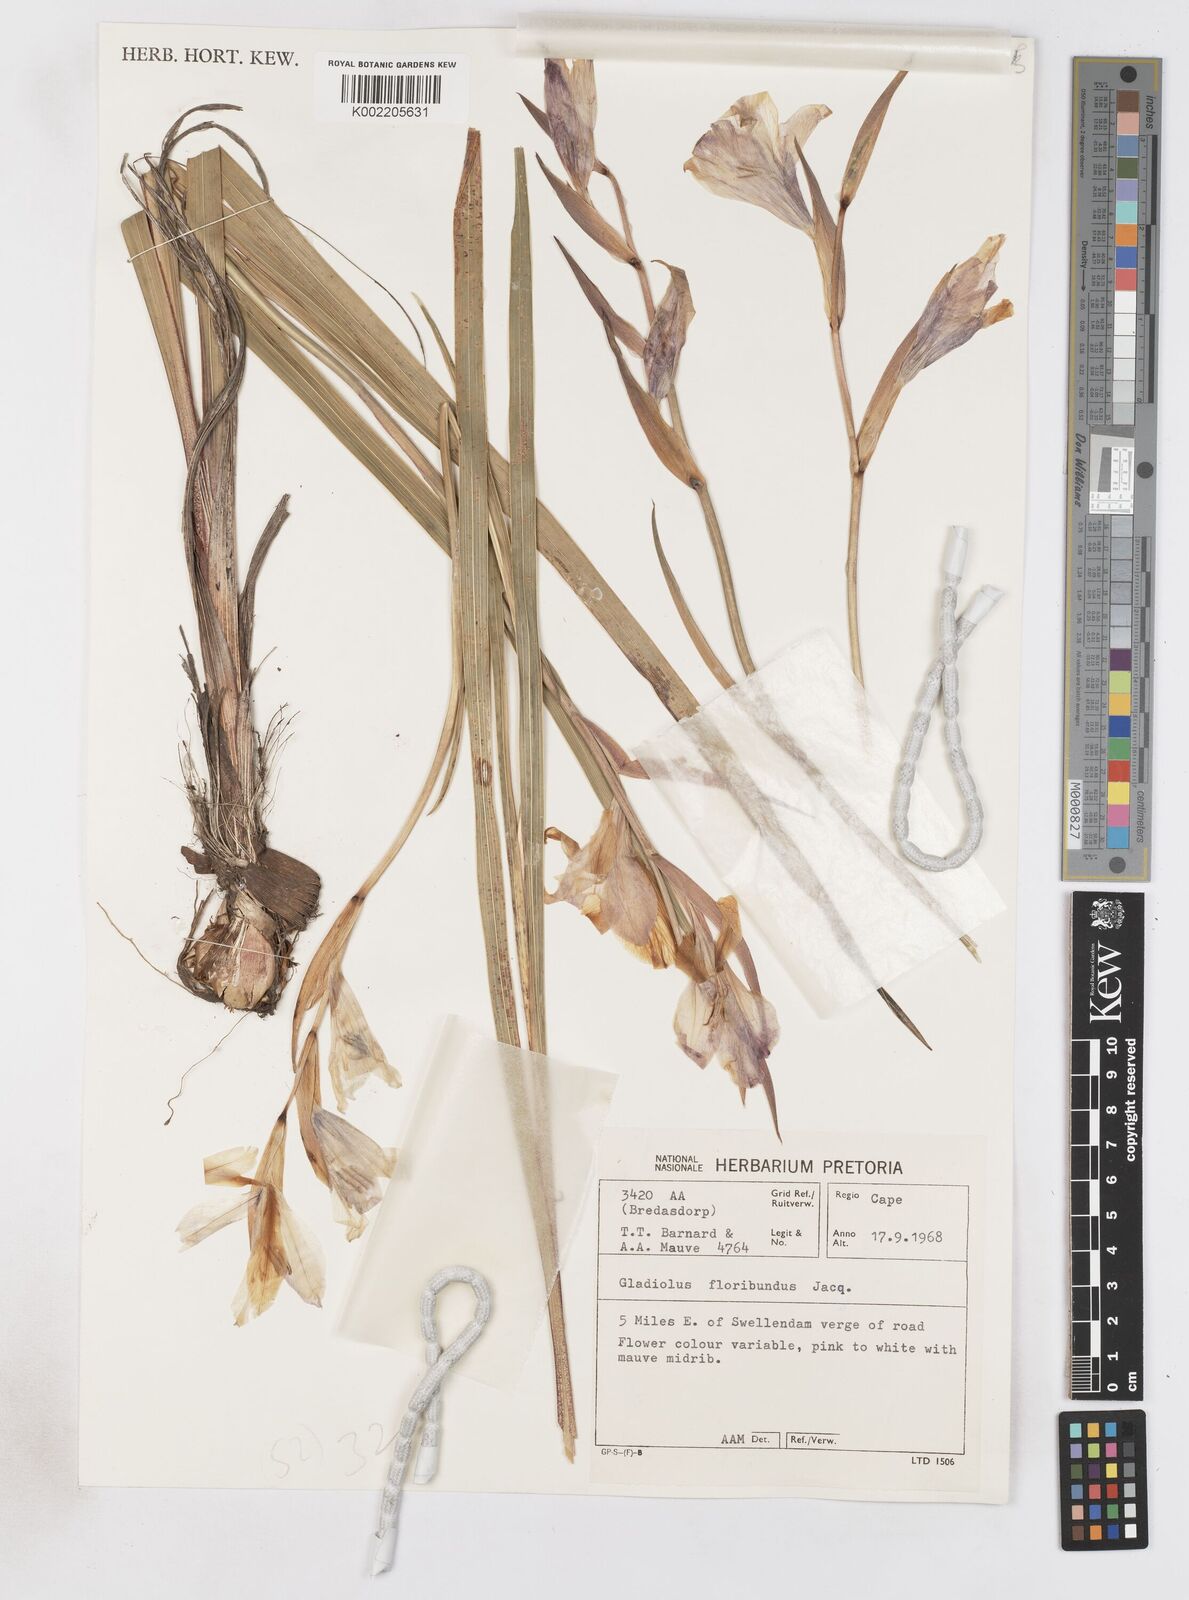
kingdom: Plantae
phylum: Tracheophyta
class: Liliopsida
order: Asparagales
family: Iridaceae
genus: Gladiolus
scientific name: Gladiolus grandiflorus
